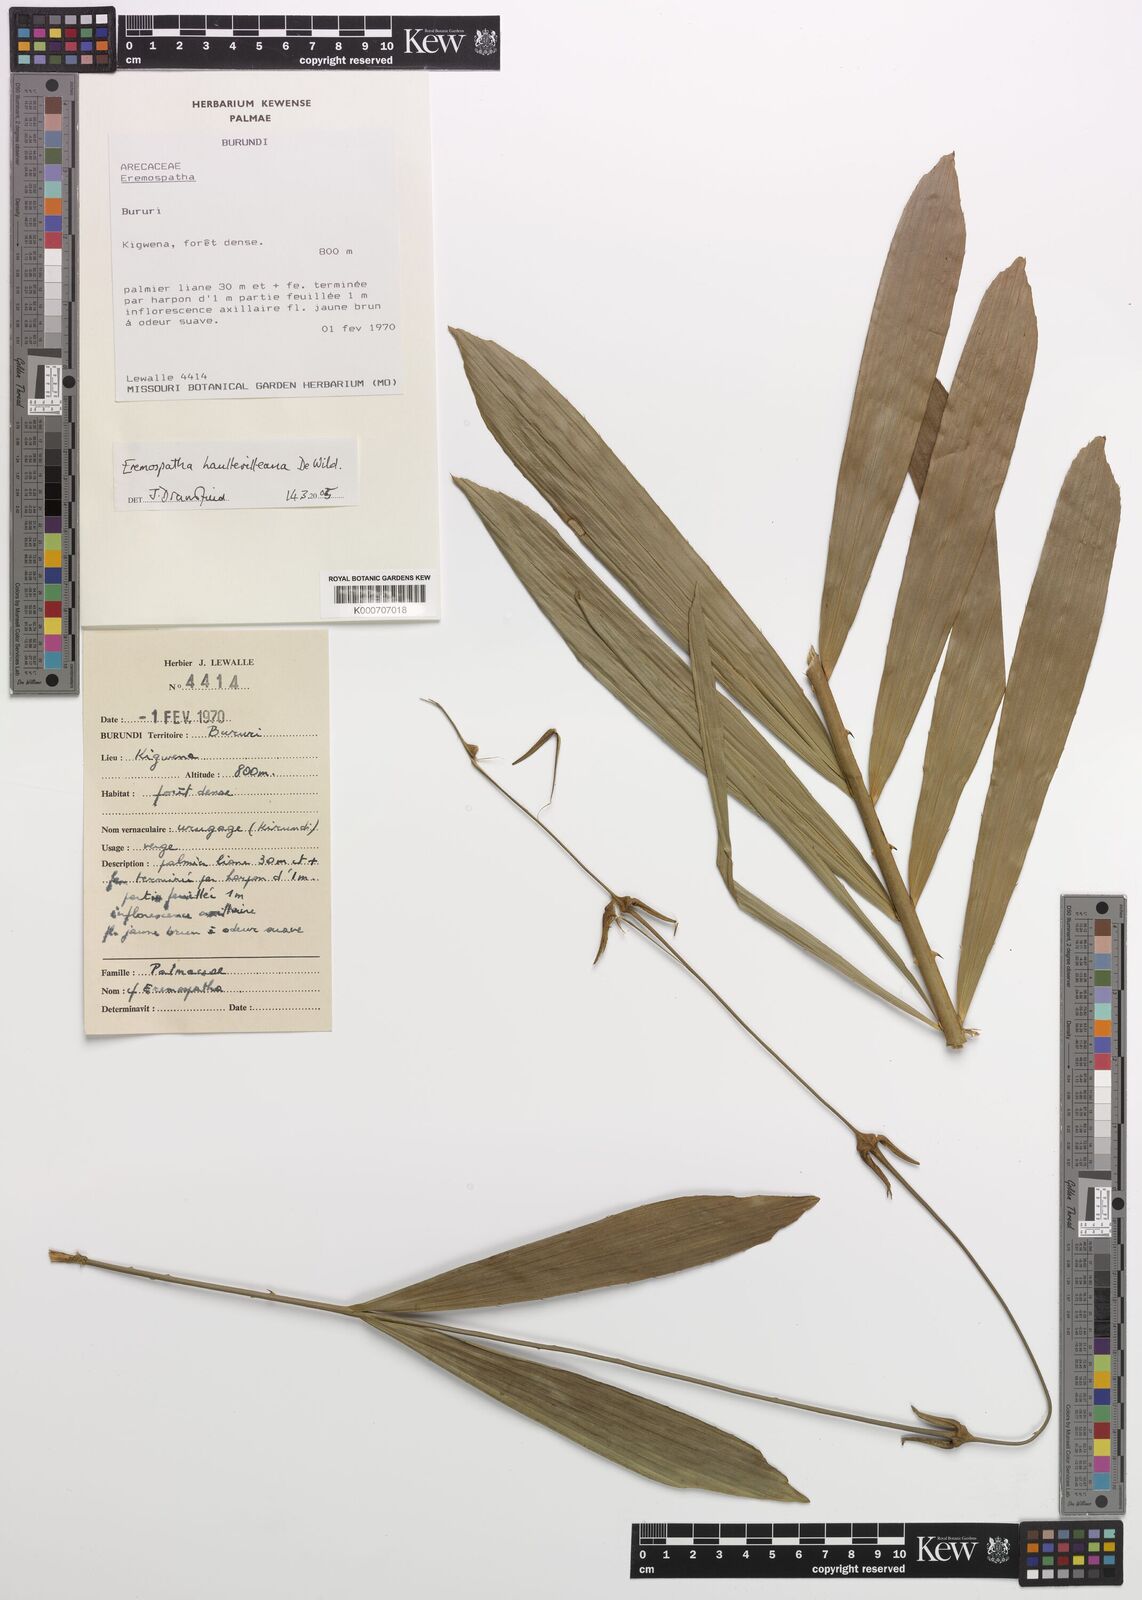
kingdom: Plantae
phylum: Tracheophyta
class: Liliopsida
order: Arecales
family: Arecaceae
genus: Eremospatha
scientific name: Eremospatha haullevilleana
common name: Rattan
